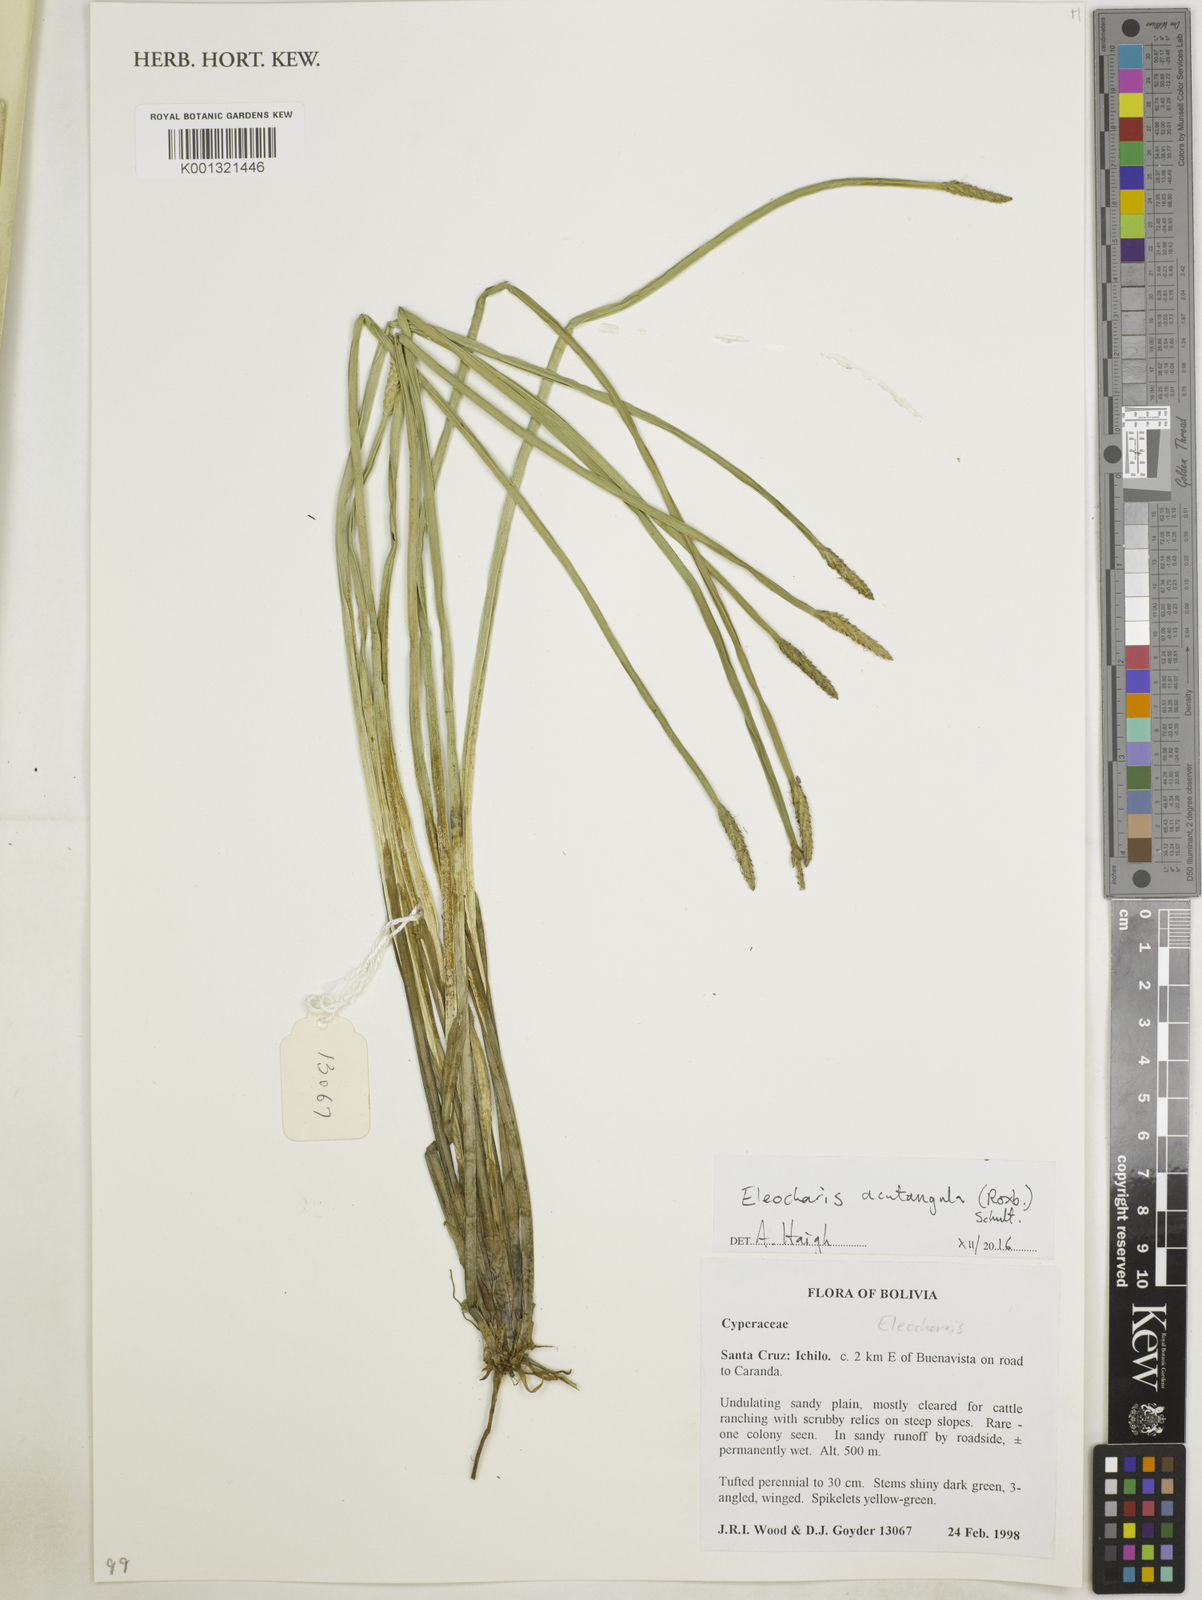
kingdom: Plantae
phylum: Tracheophyta
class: Liliopsida
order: Poales
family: Cyperaceae
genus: Eleocharis
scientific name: Eleocharis acutangula
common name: Acute spikerush
